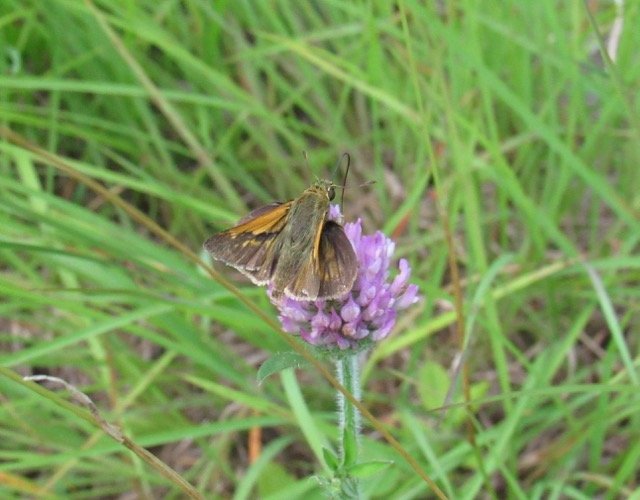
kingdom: Animalia
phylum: Arthropoda
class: Insecta
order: Lepidoptera
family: Hesperiidae
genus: Polites
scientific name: Polites
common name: Crossline Skipper
